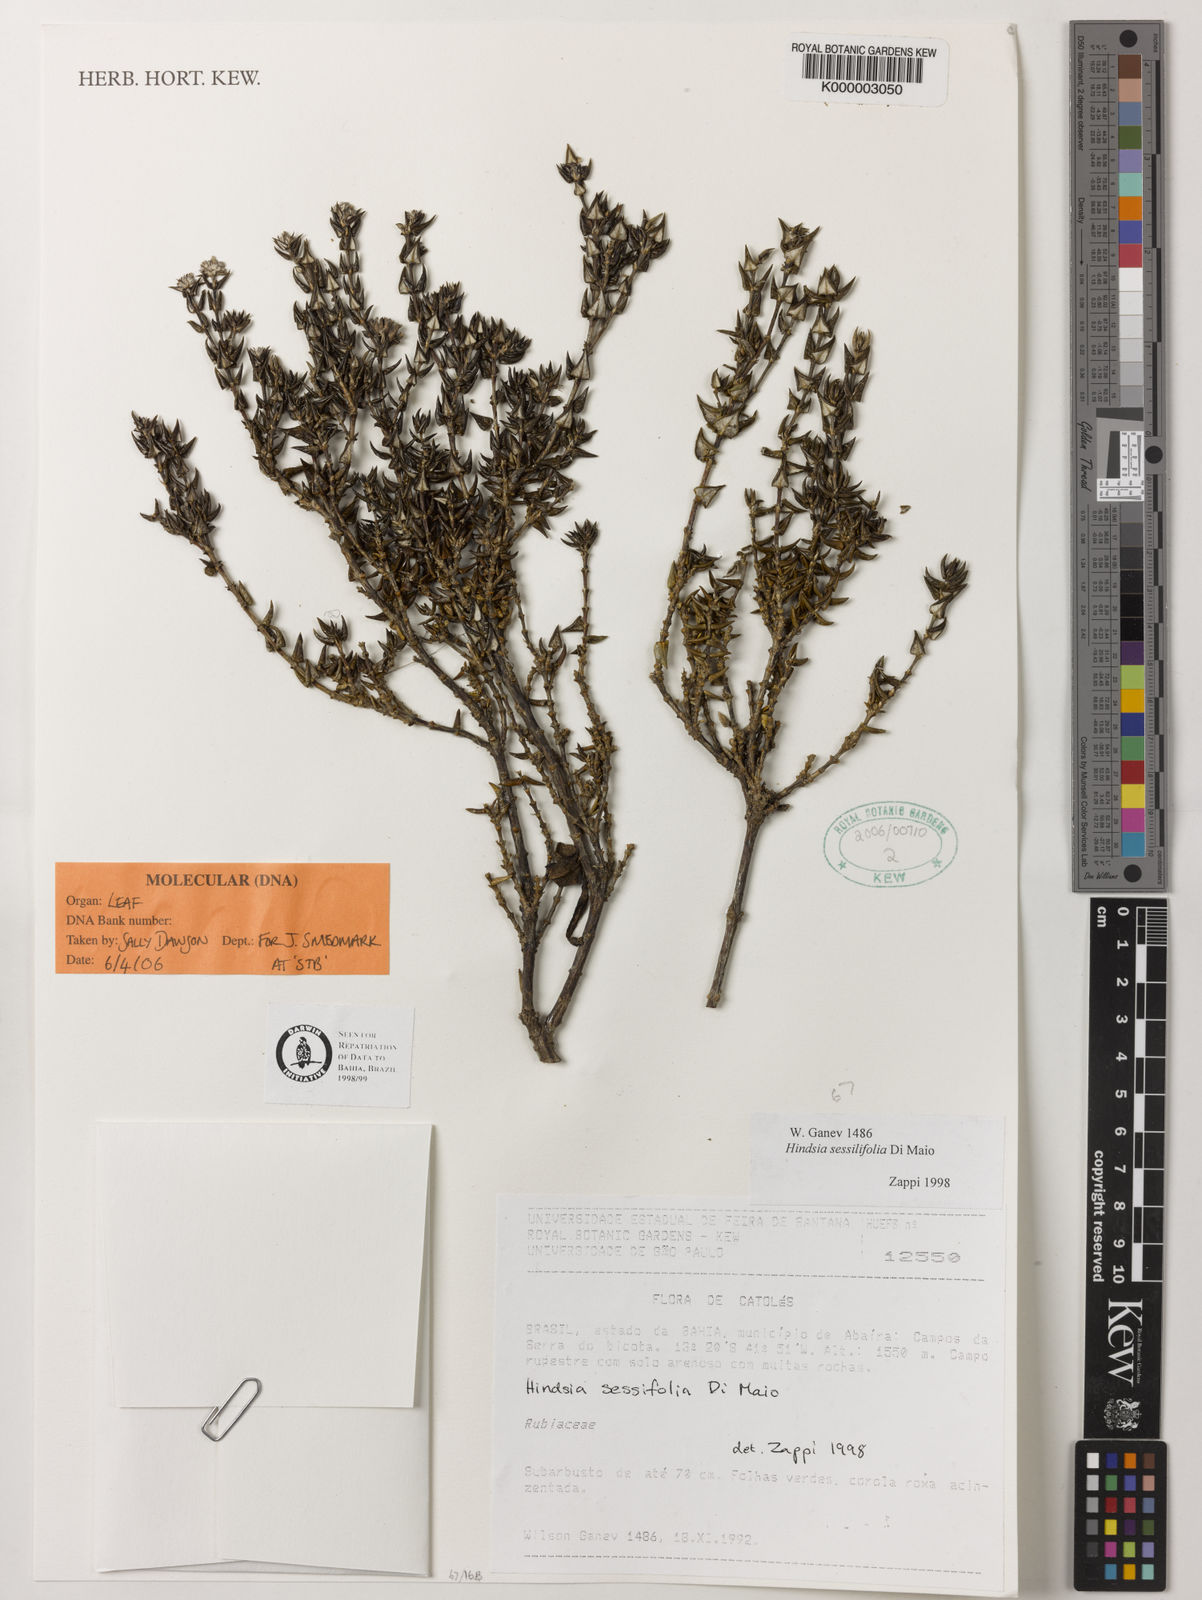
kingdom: Plantae
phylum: Tracheophyta
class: Magnoliopsida
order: Gentianales
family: Rubiaceae
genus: Hindsia
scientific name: Hindsia sessilifolia
